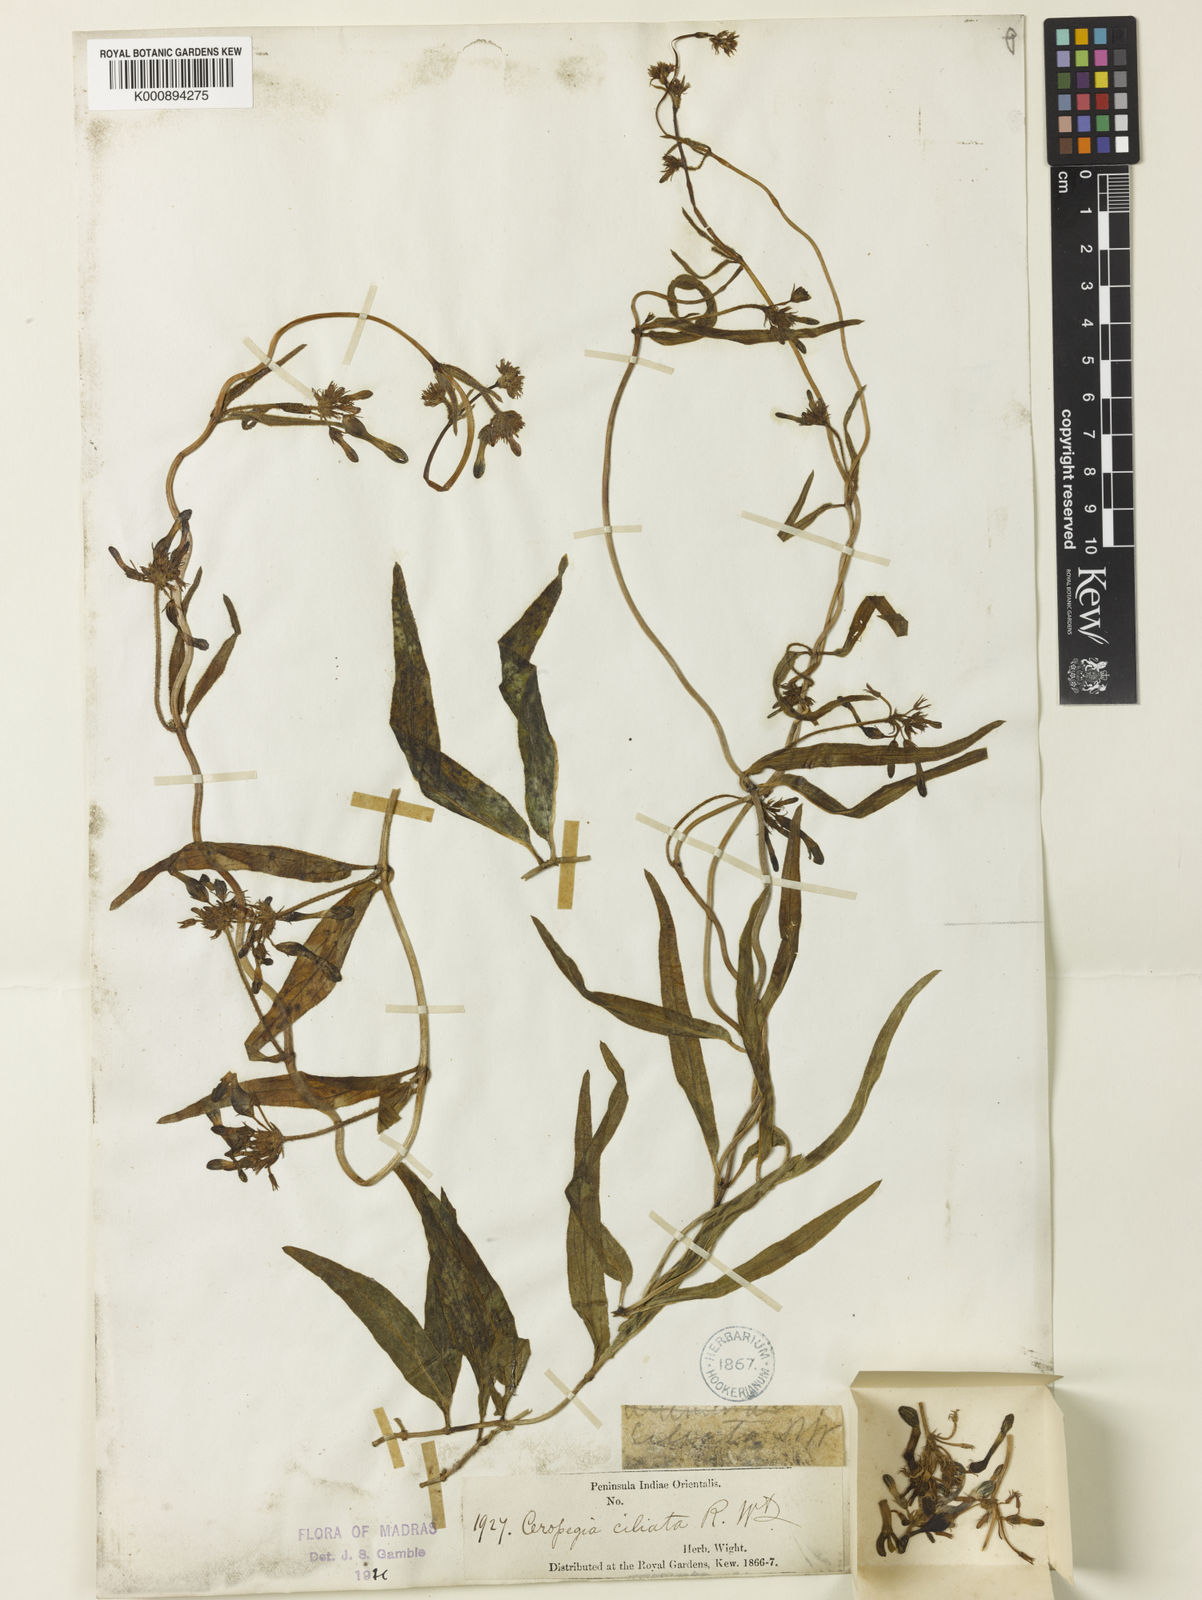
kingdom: Plantae
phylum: Tracheophyta
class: Magnoliopsida
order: Gentianales
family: Apocynaceae
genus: Ceropegia
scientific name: Ceropegia ciliata
